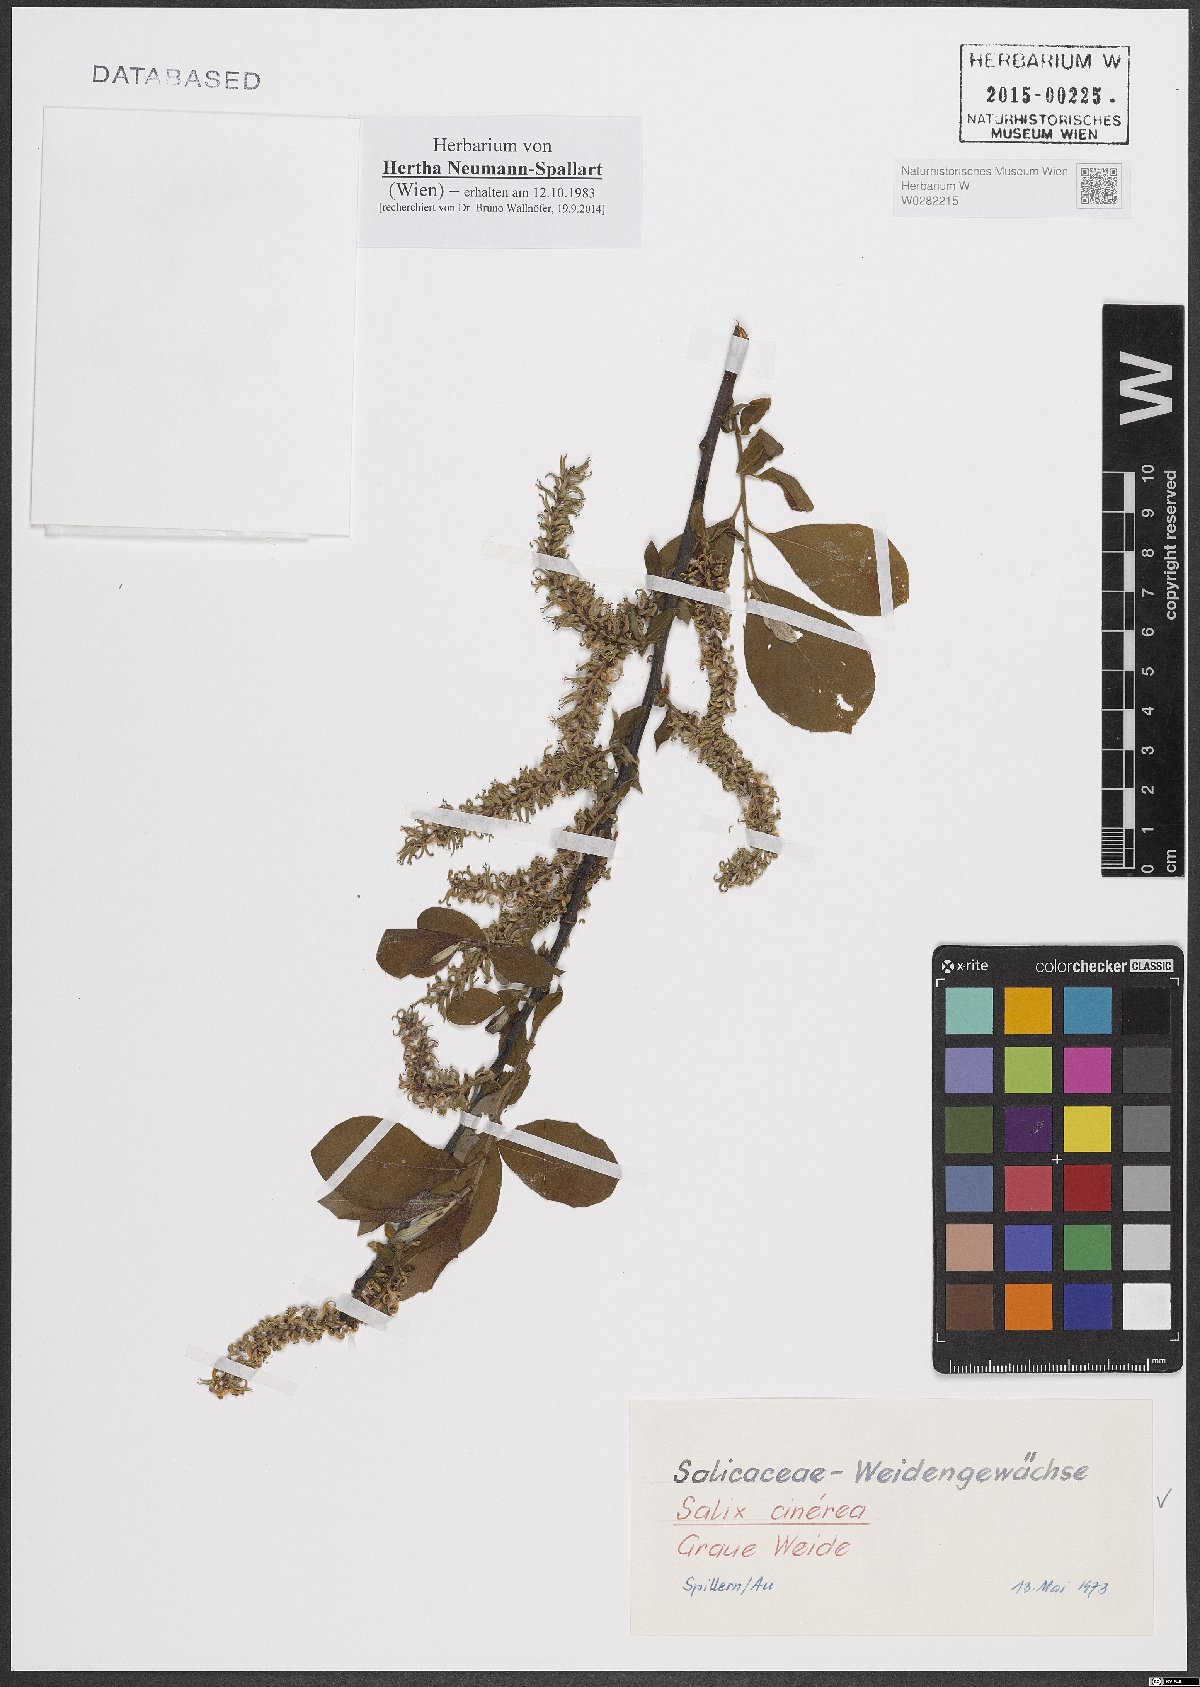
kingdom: Plantae
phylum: Tracheophyta
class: Magnoliopsida
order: Malpighiales
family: Salicaceae
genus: Salix
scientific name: Salix cinerea
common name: Common sallow
